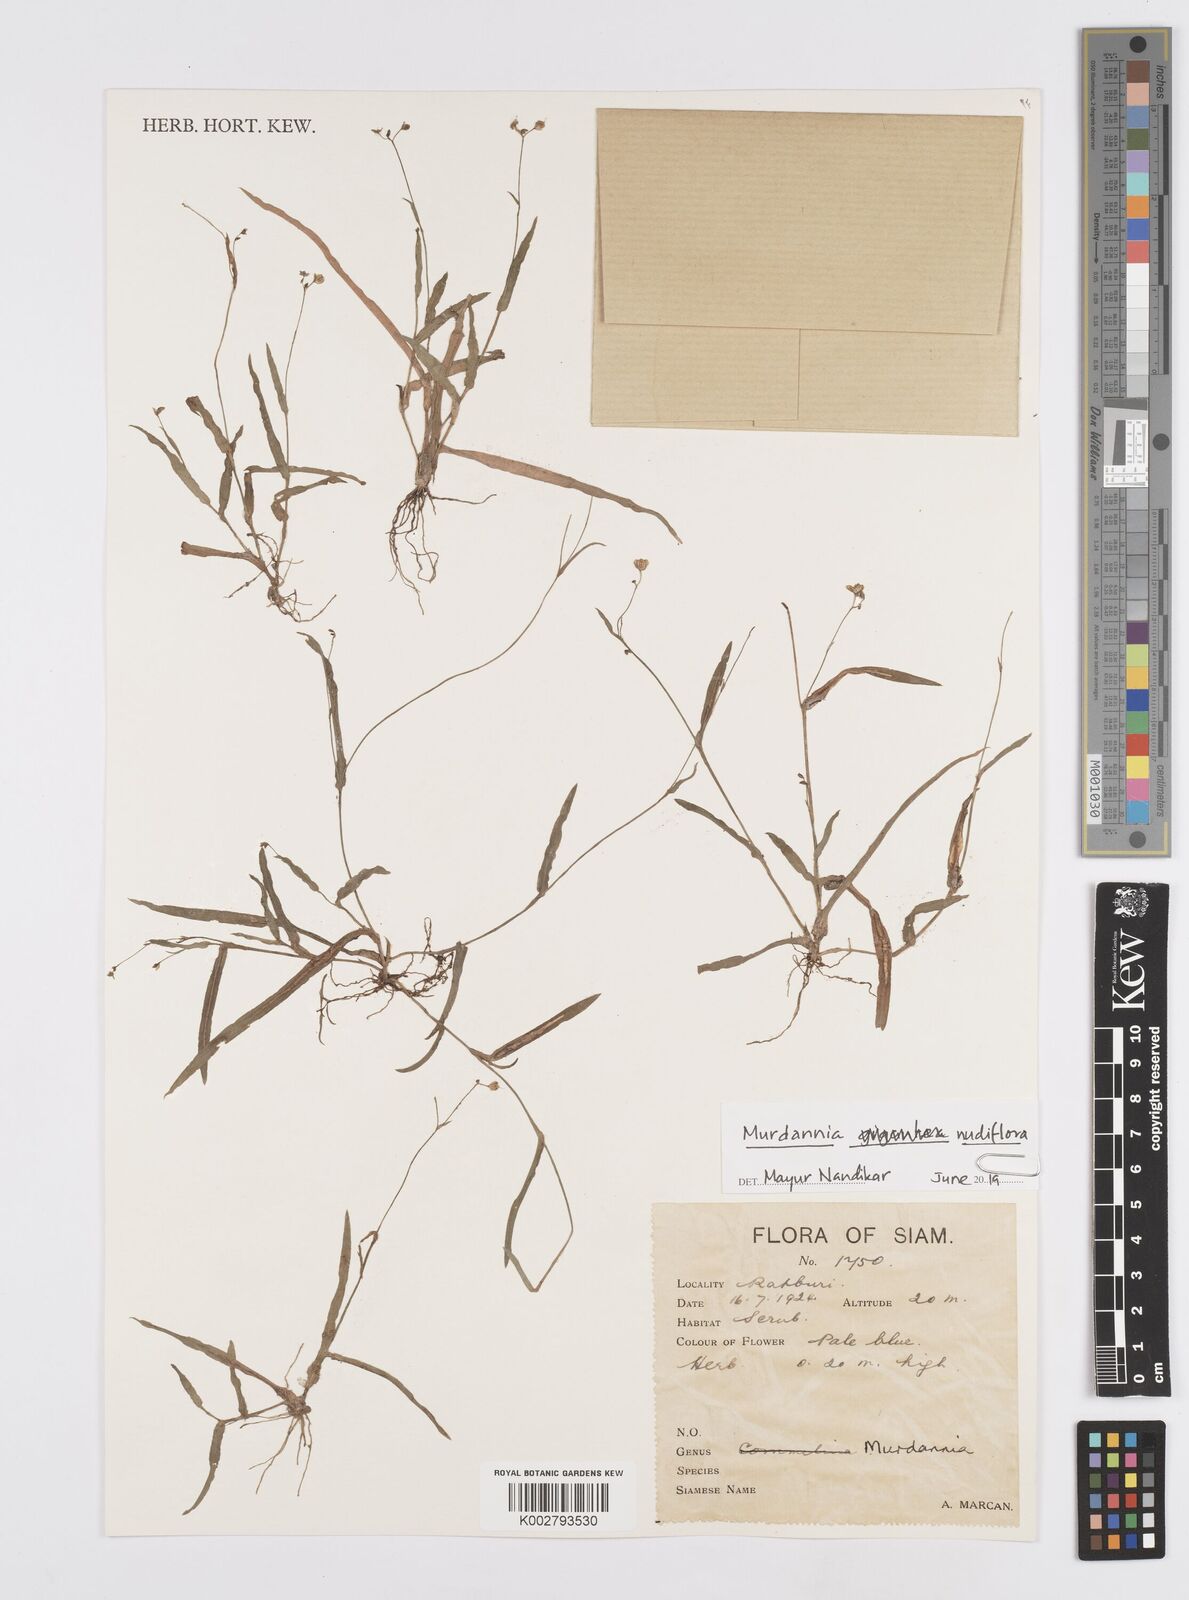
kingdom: Plantae
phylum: Tracheophyta
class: Liliopsida
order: Commelinales
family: Commelinaceae
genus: Murdannia
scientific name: Murdannia
